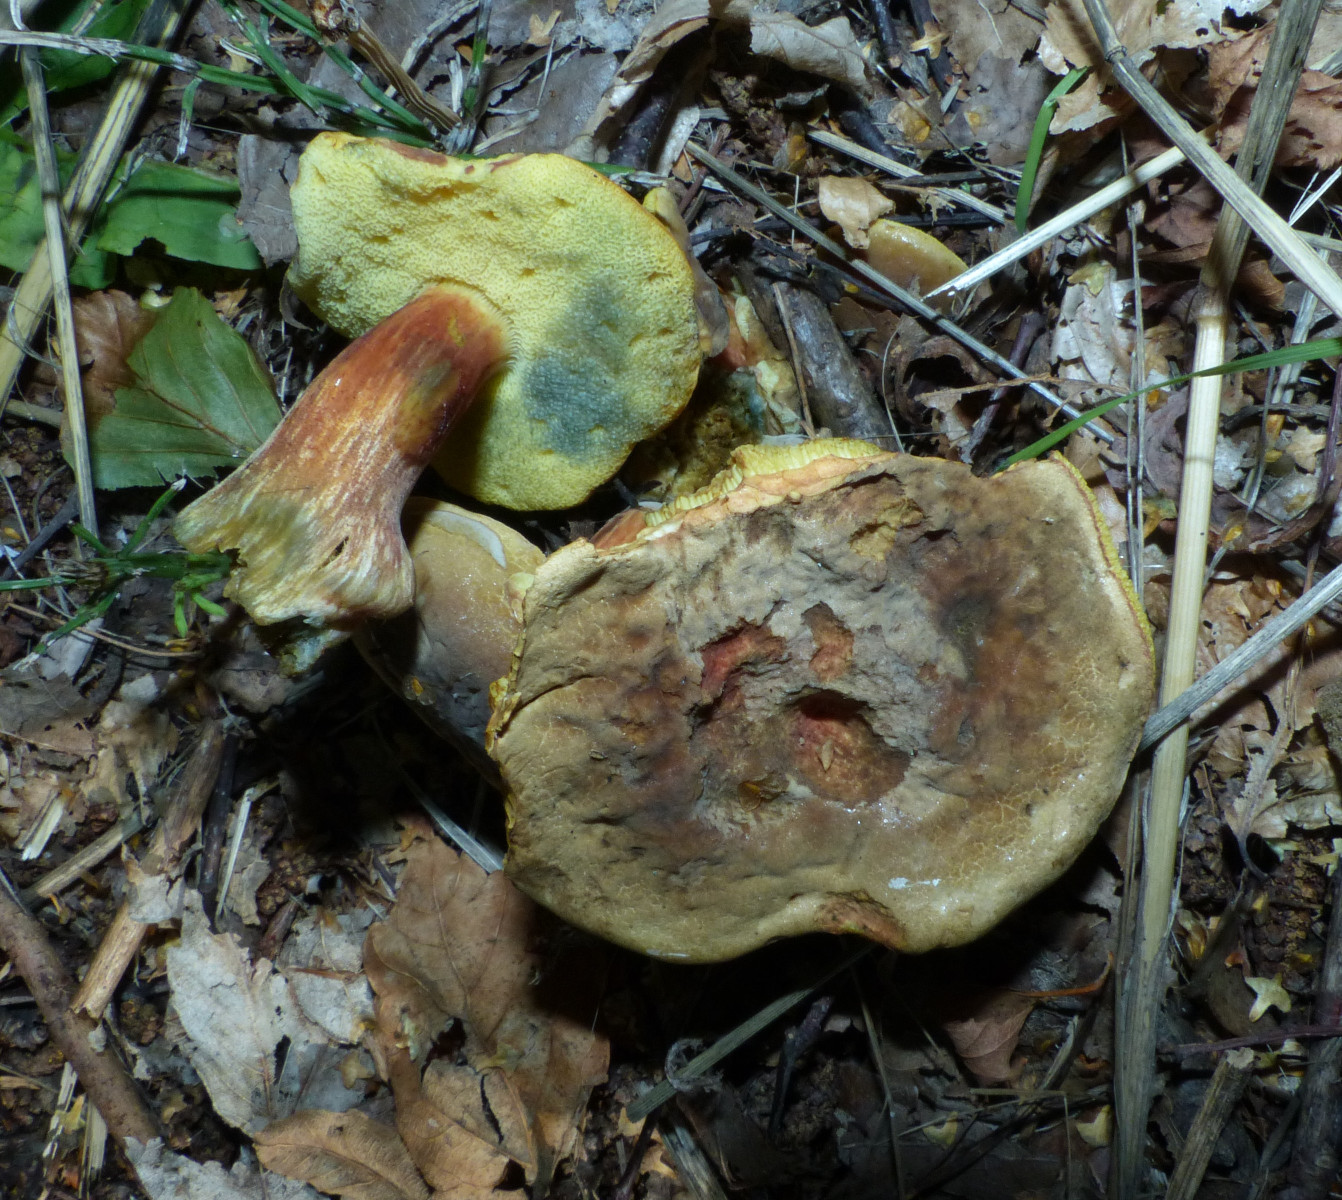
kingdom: Fungi
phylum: Basidiomycota
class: Agaricomycetes
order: Boletales
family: Boletaceae
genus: Hortiboletus
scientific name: Hortiboletus bubalinus
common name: aurora-rørhat
